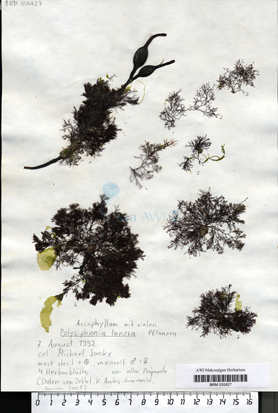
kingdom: Plantae
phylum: Rhodophyta
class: Florideophyceae
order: Ceramiales
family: Rhodomelaceae
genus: Vertebrata
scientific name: Vertebrata lanosa
